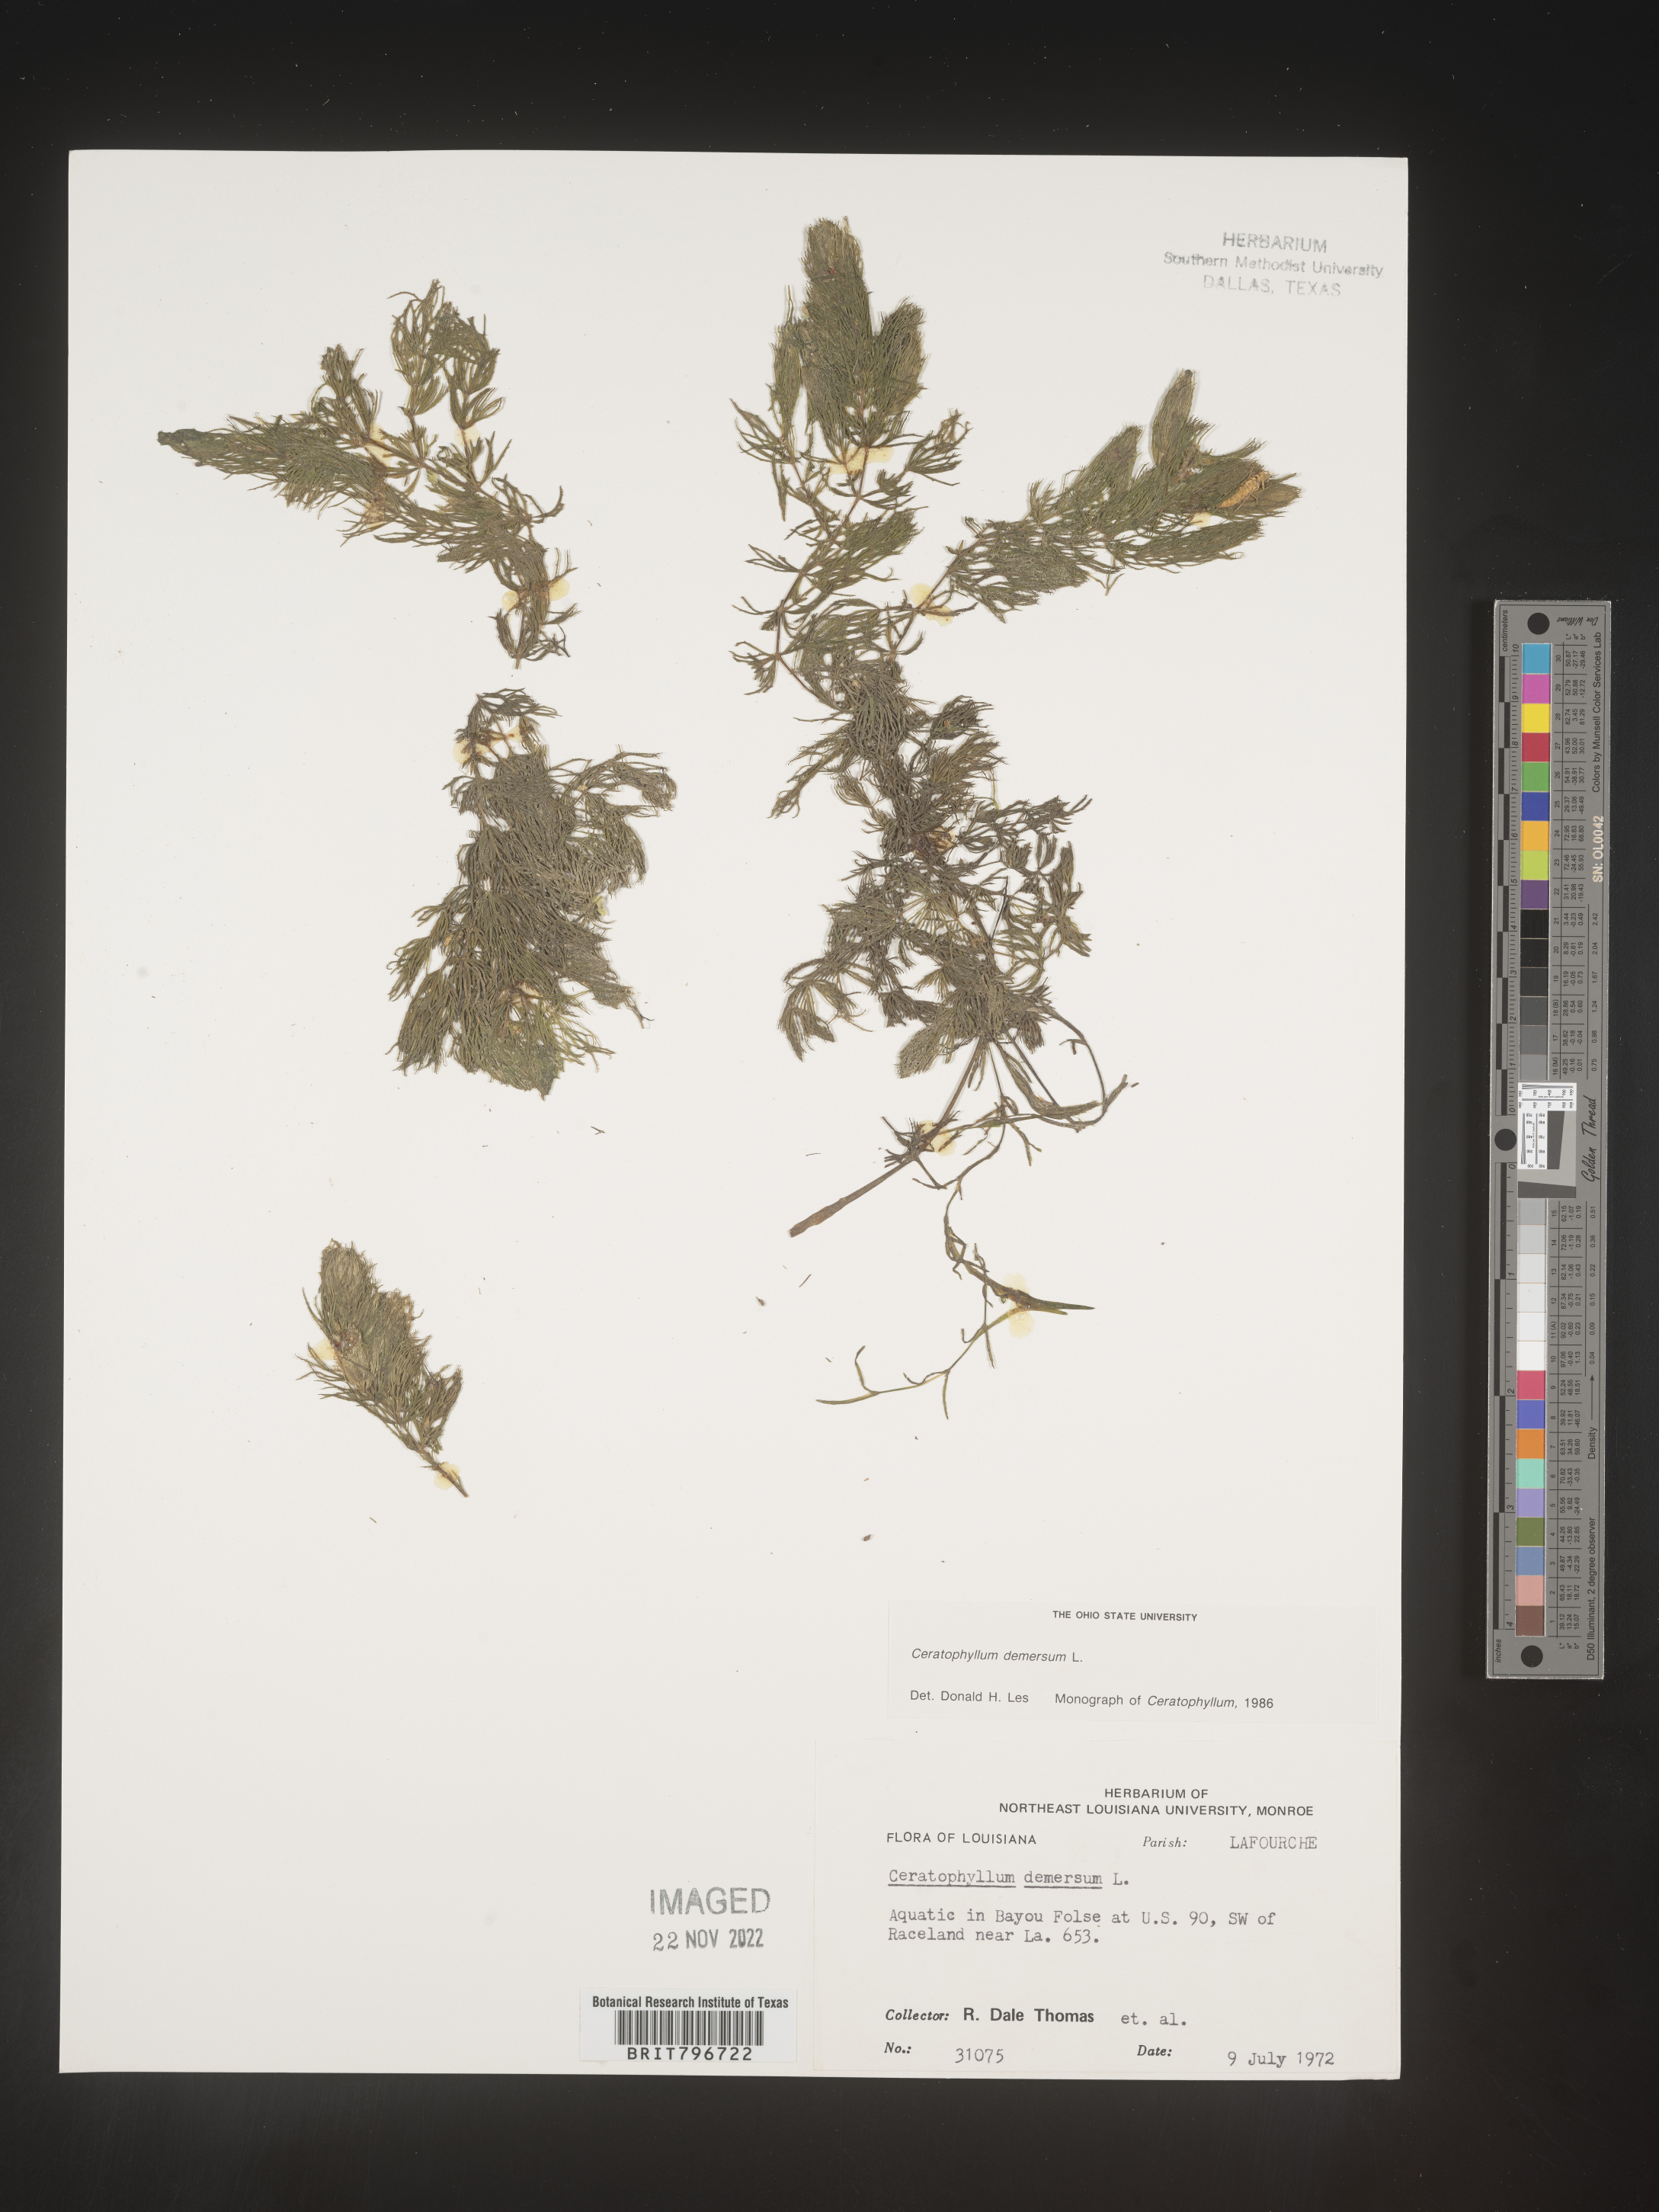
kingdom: Plantae
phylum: Tracheophyta
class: Magnoliopsida
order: Ceratophyllales
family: Ceratophyllaceae
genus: Ceratophyllum
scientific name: Ceratophyllum demersum
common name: Rigid hornwort
